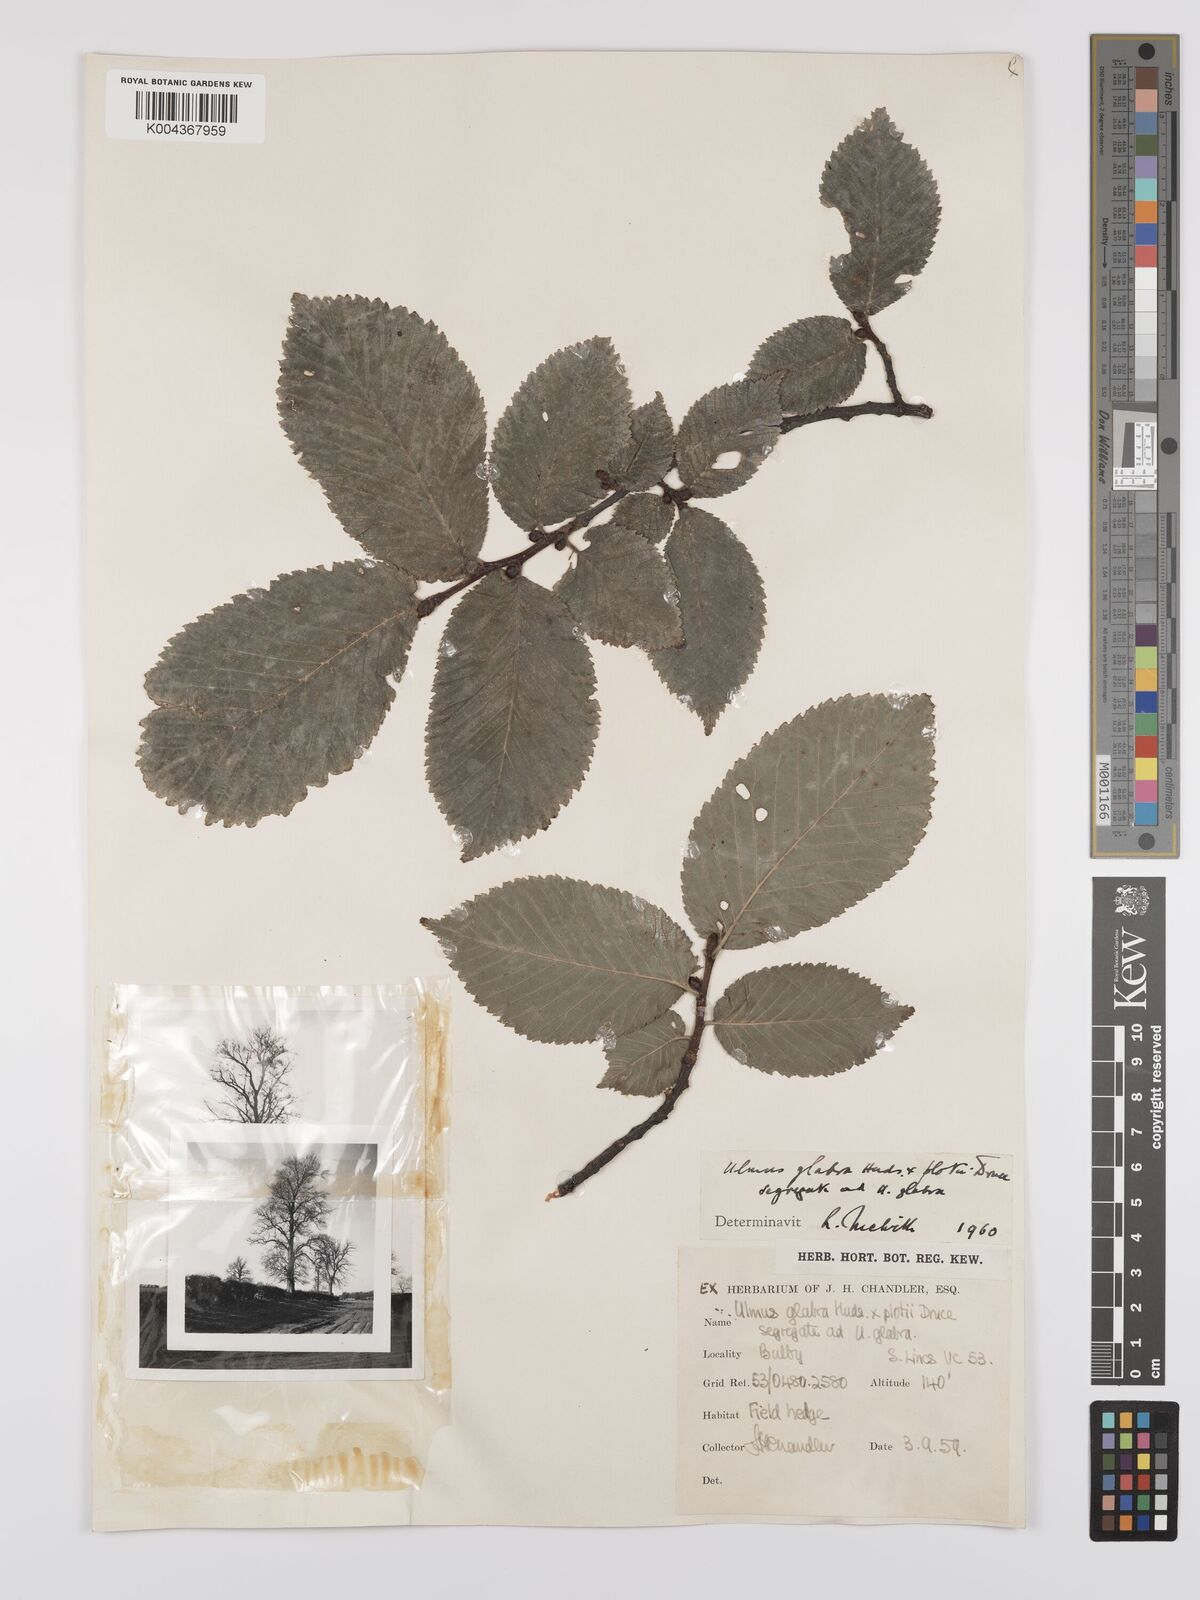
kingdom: Plantae
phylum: Tracheophyta
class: Magnoliopsida
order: Rosales
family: Ulmaceae
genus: Ulmus
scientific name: Ulmus glabra
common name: Wych elm
